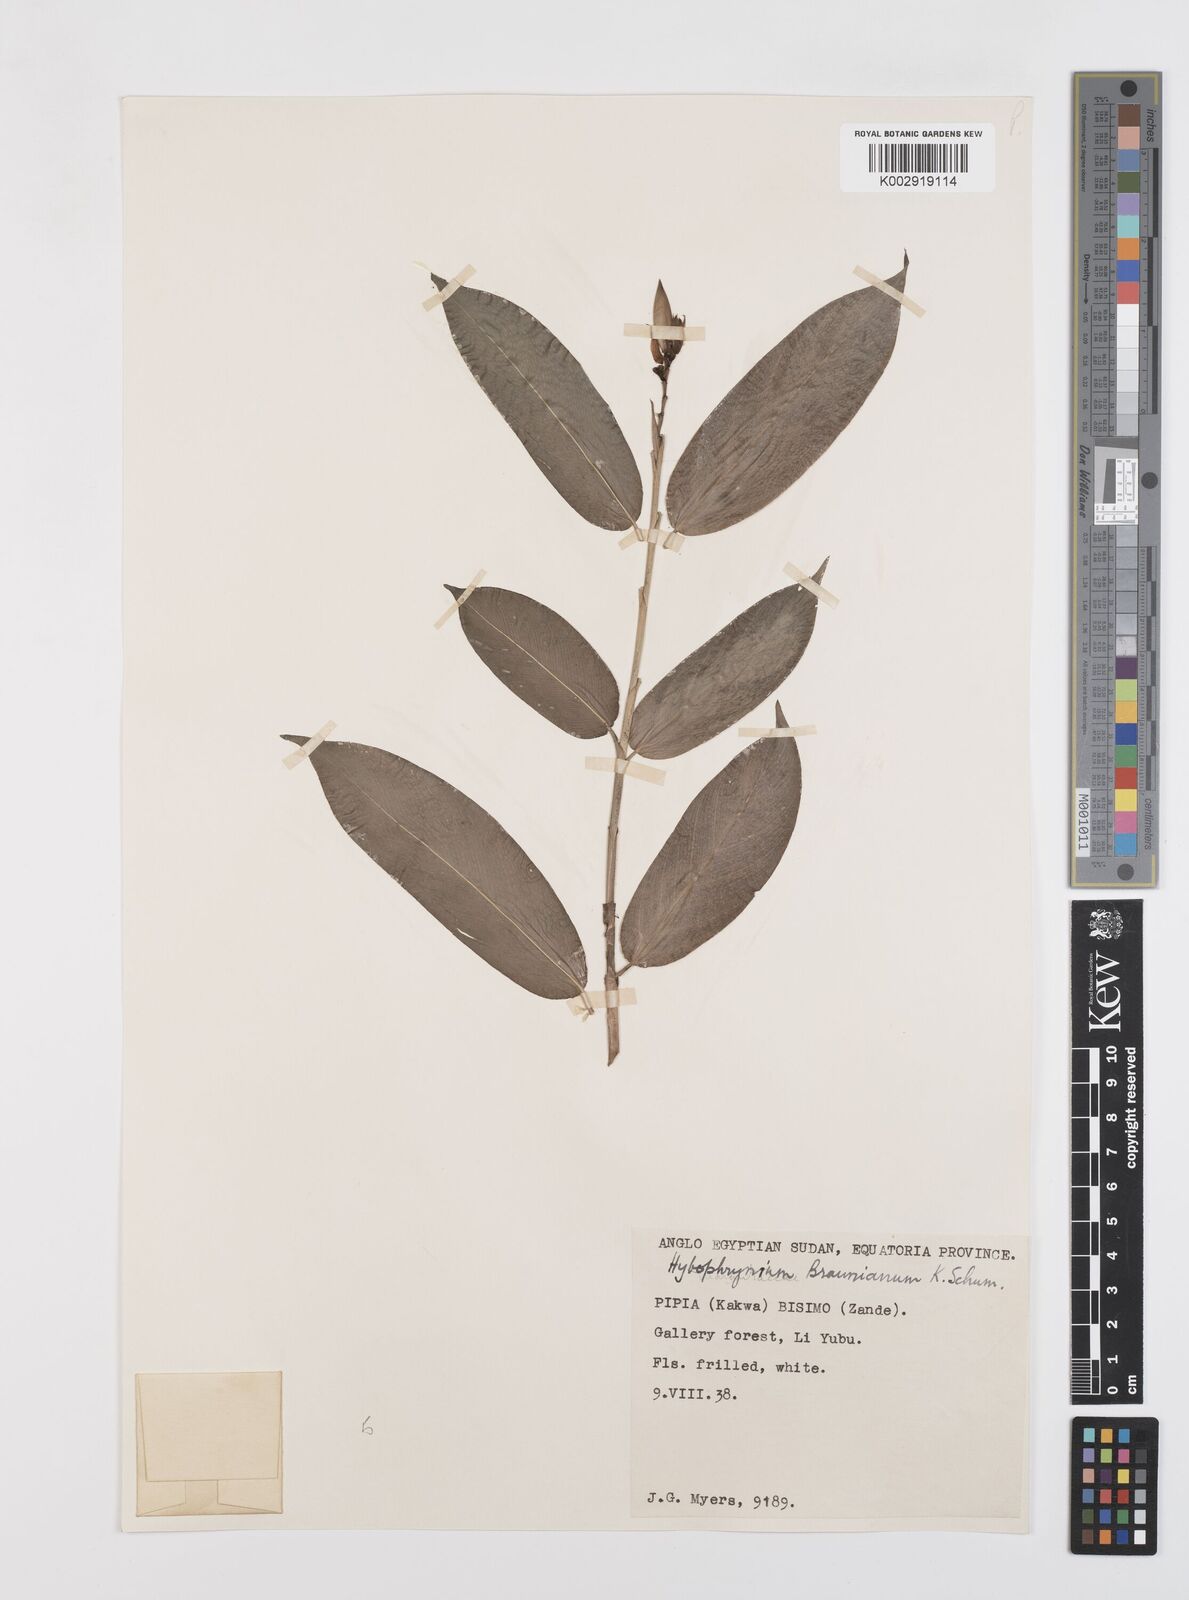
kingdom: Plantae
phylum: Tracheophyta
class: Liliopsida
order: Zingiberales
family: Marantaceae
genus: Trachyphrynium
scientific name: Trachyphrynium braunianum
